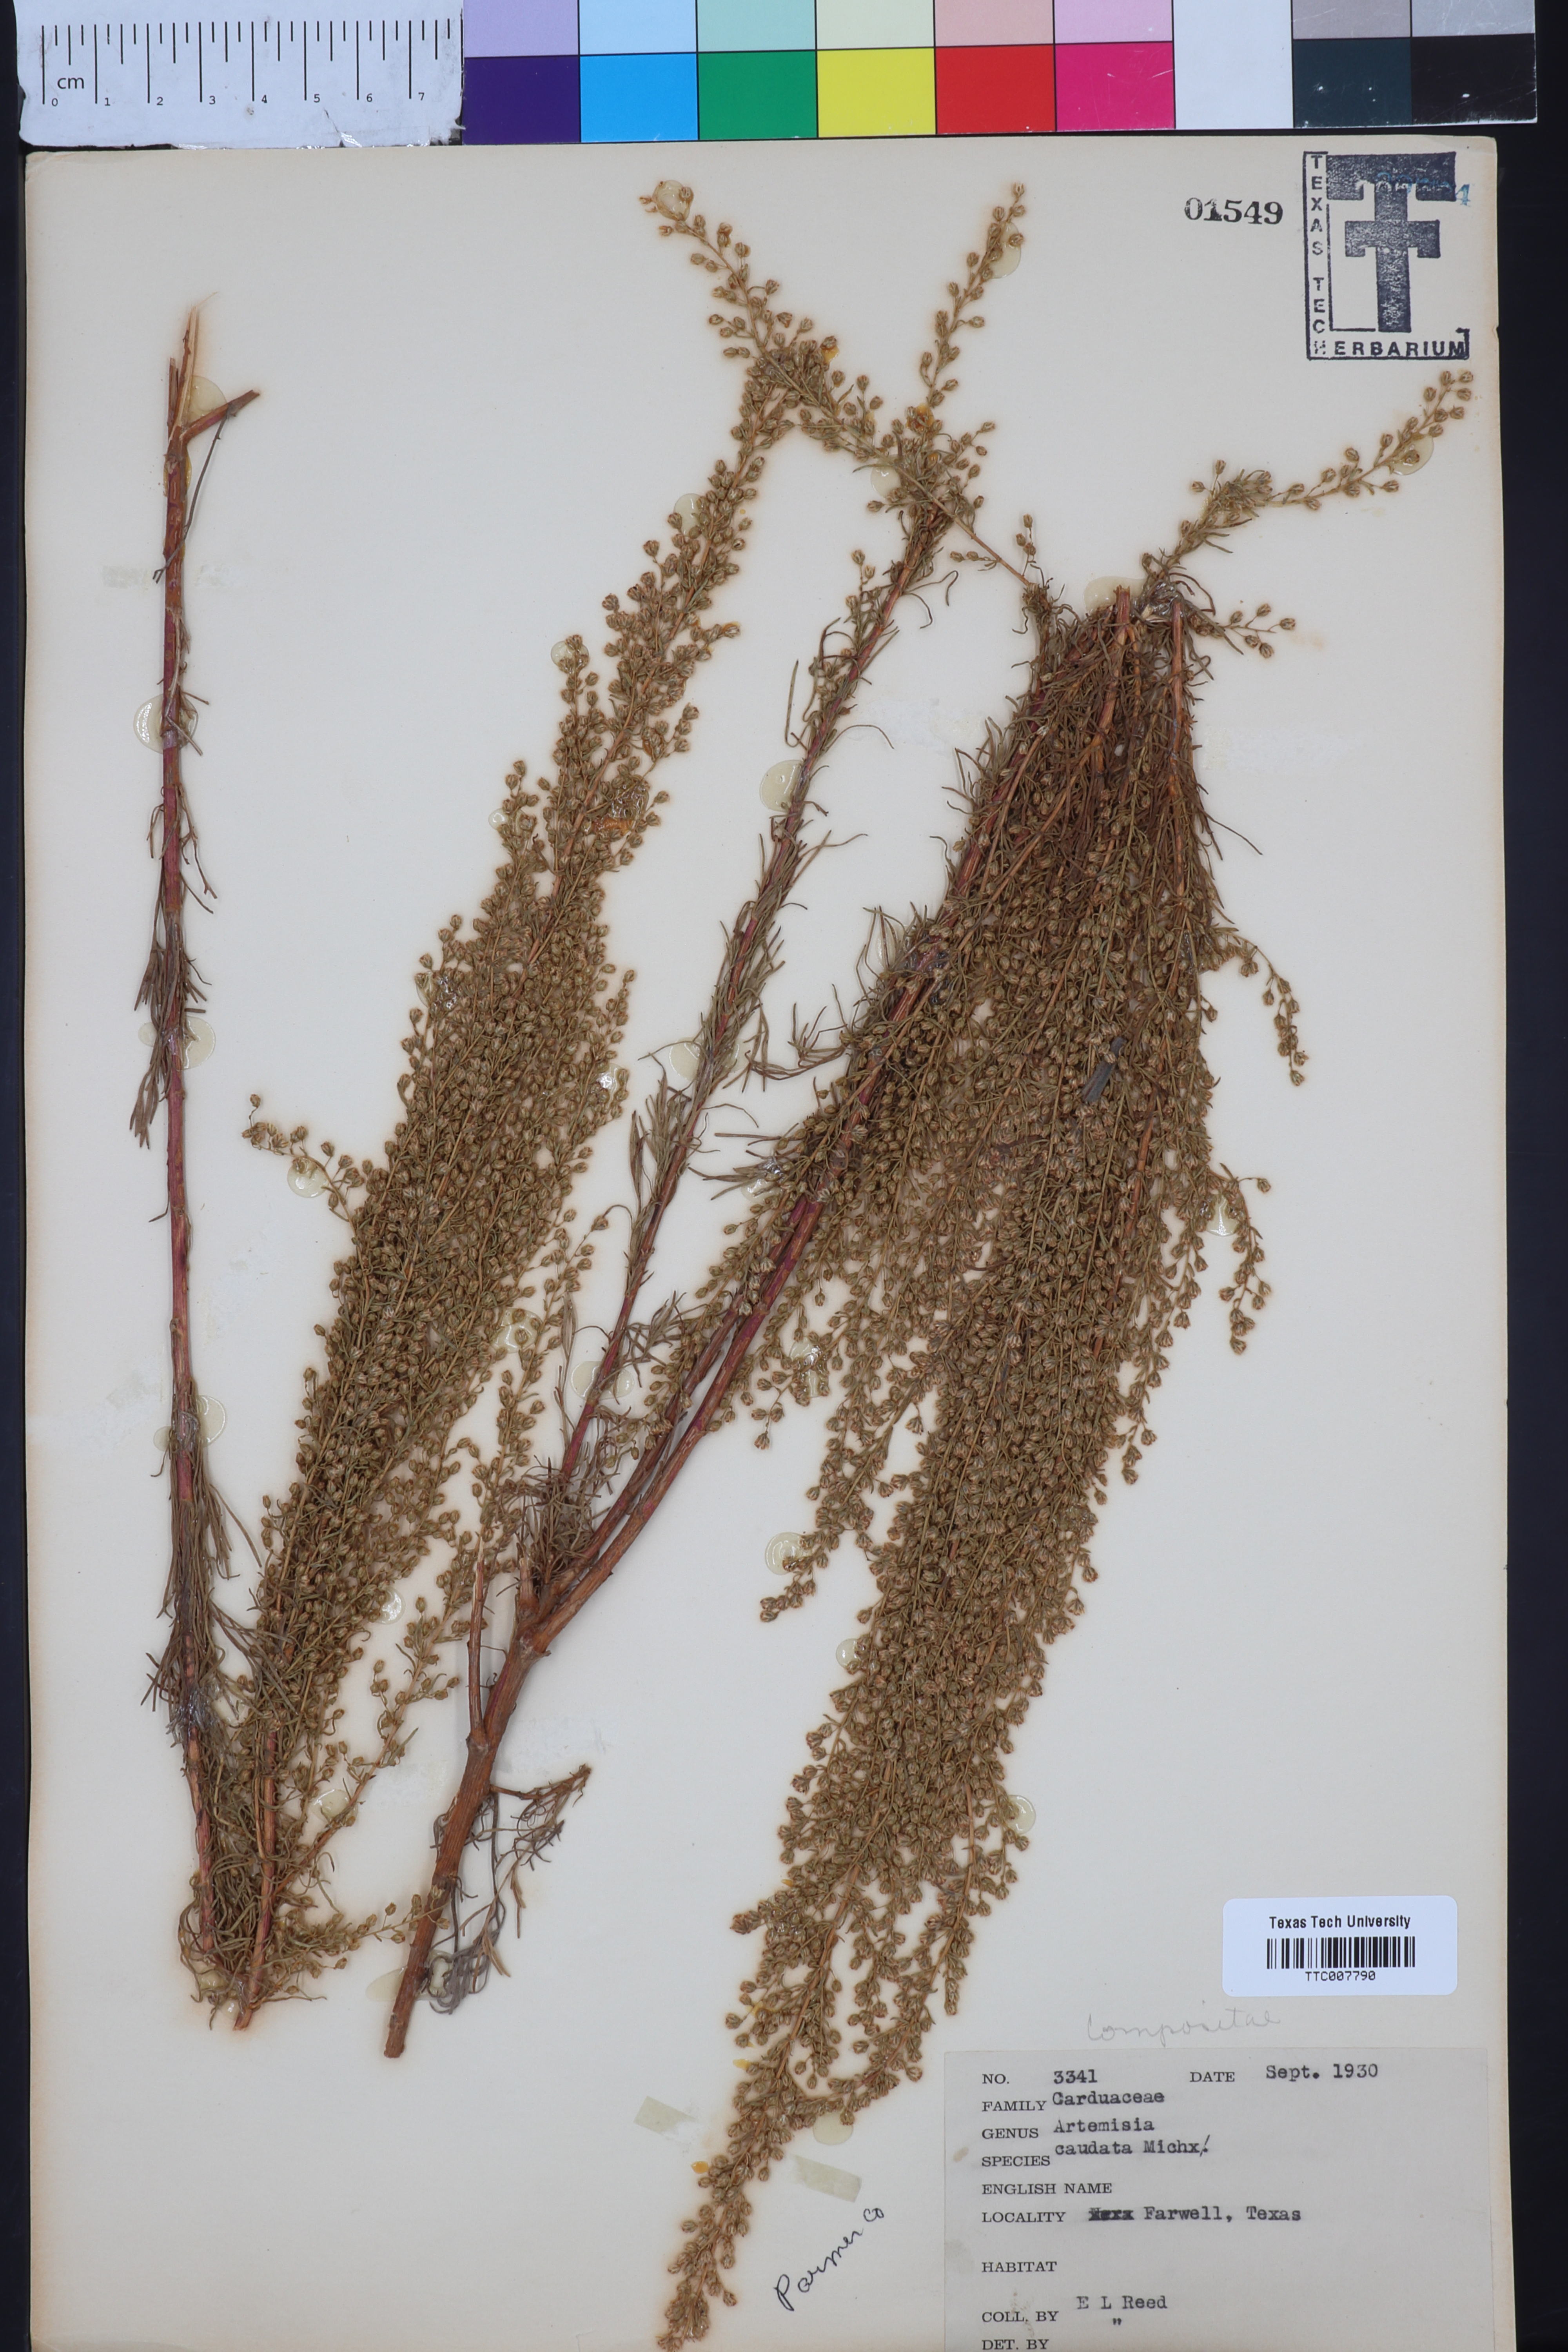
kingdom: Plantae
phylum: Tracheophyta
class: Magnoliopsida
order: Asterales
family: Asteraceae
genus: Artemisia
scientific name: Artemisia campestris
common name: Field wormwood
